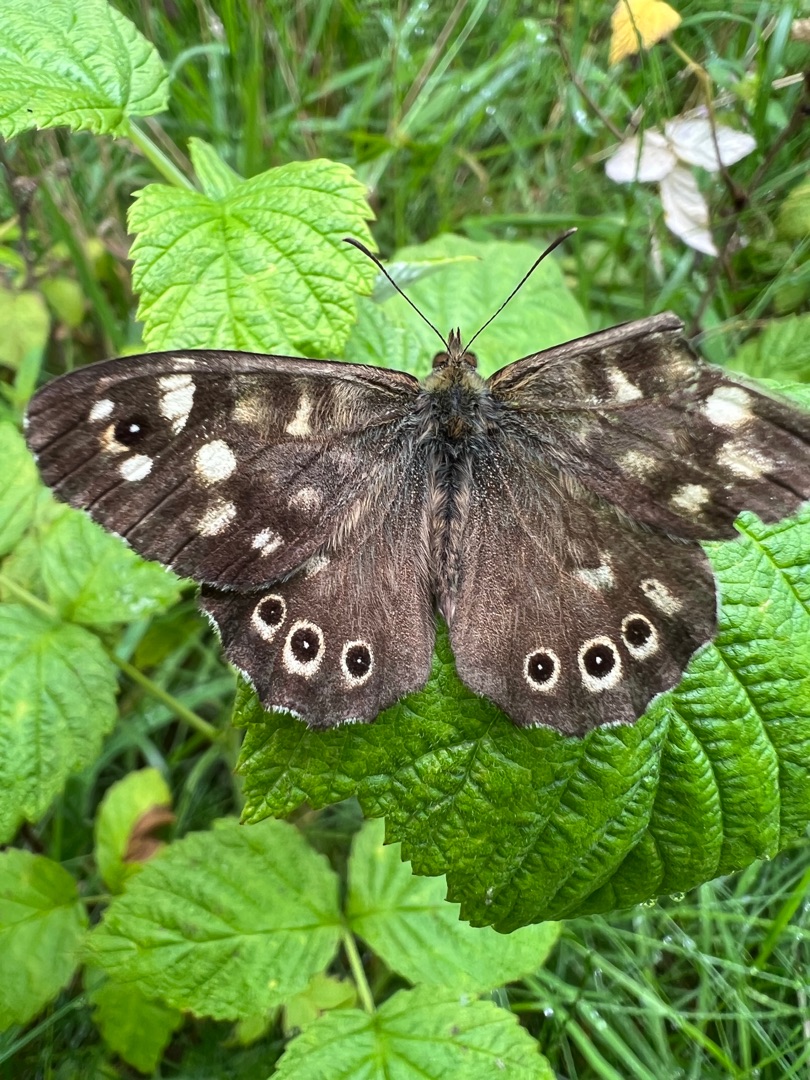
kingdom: Animalia
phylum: Arthropoda
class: Insecta
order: Lepidoptera
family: Nymphalidae
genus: Pararge
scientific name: Pararge aegeria
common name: Skovrandøje
